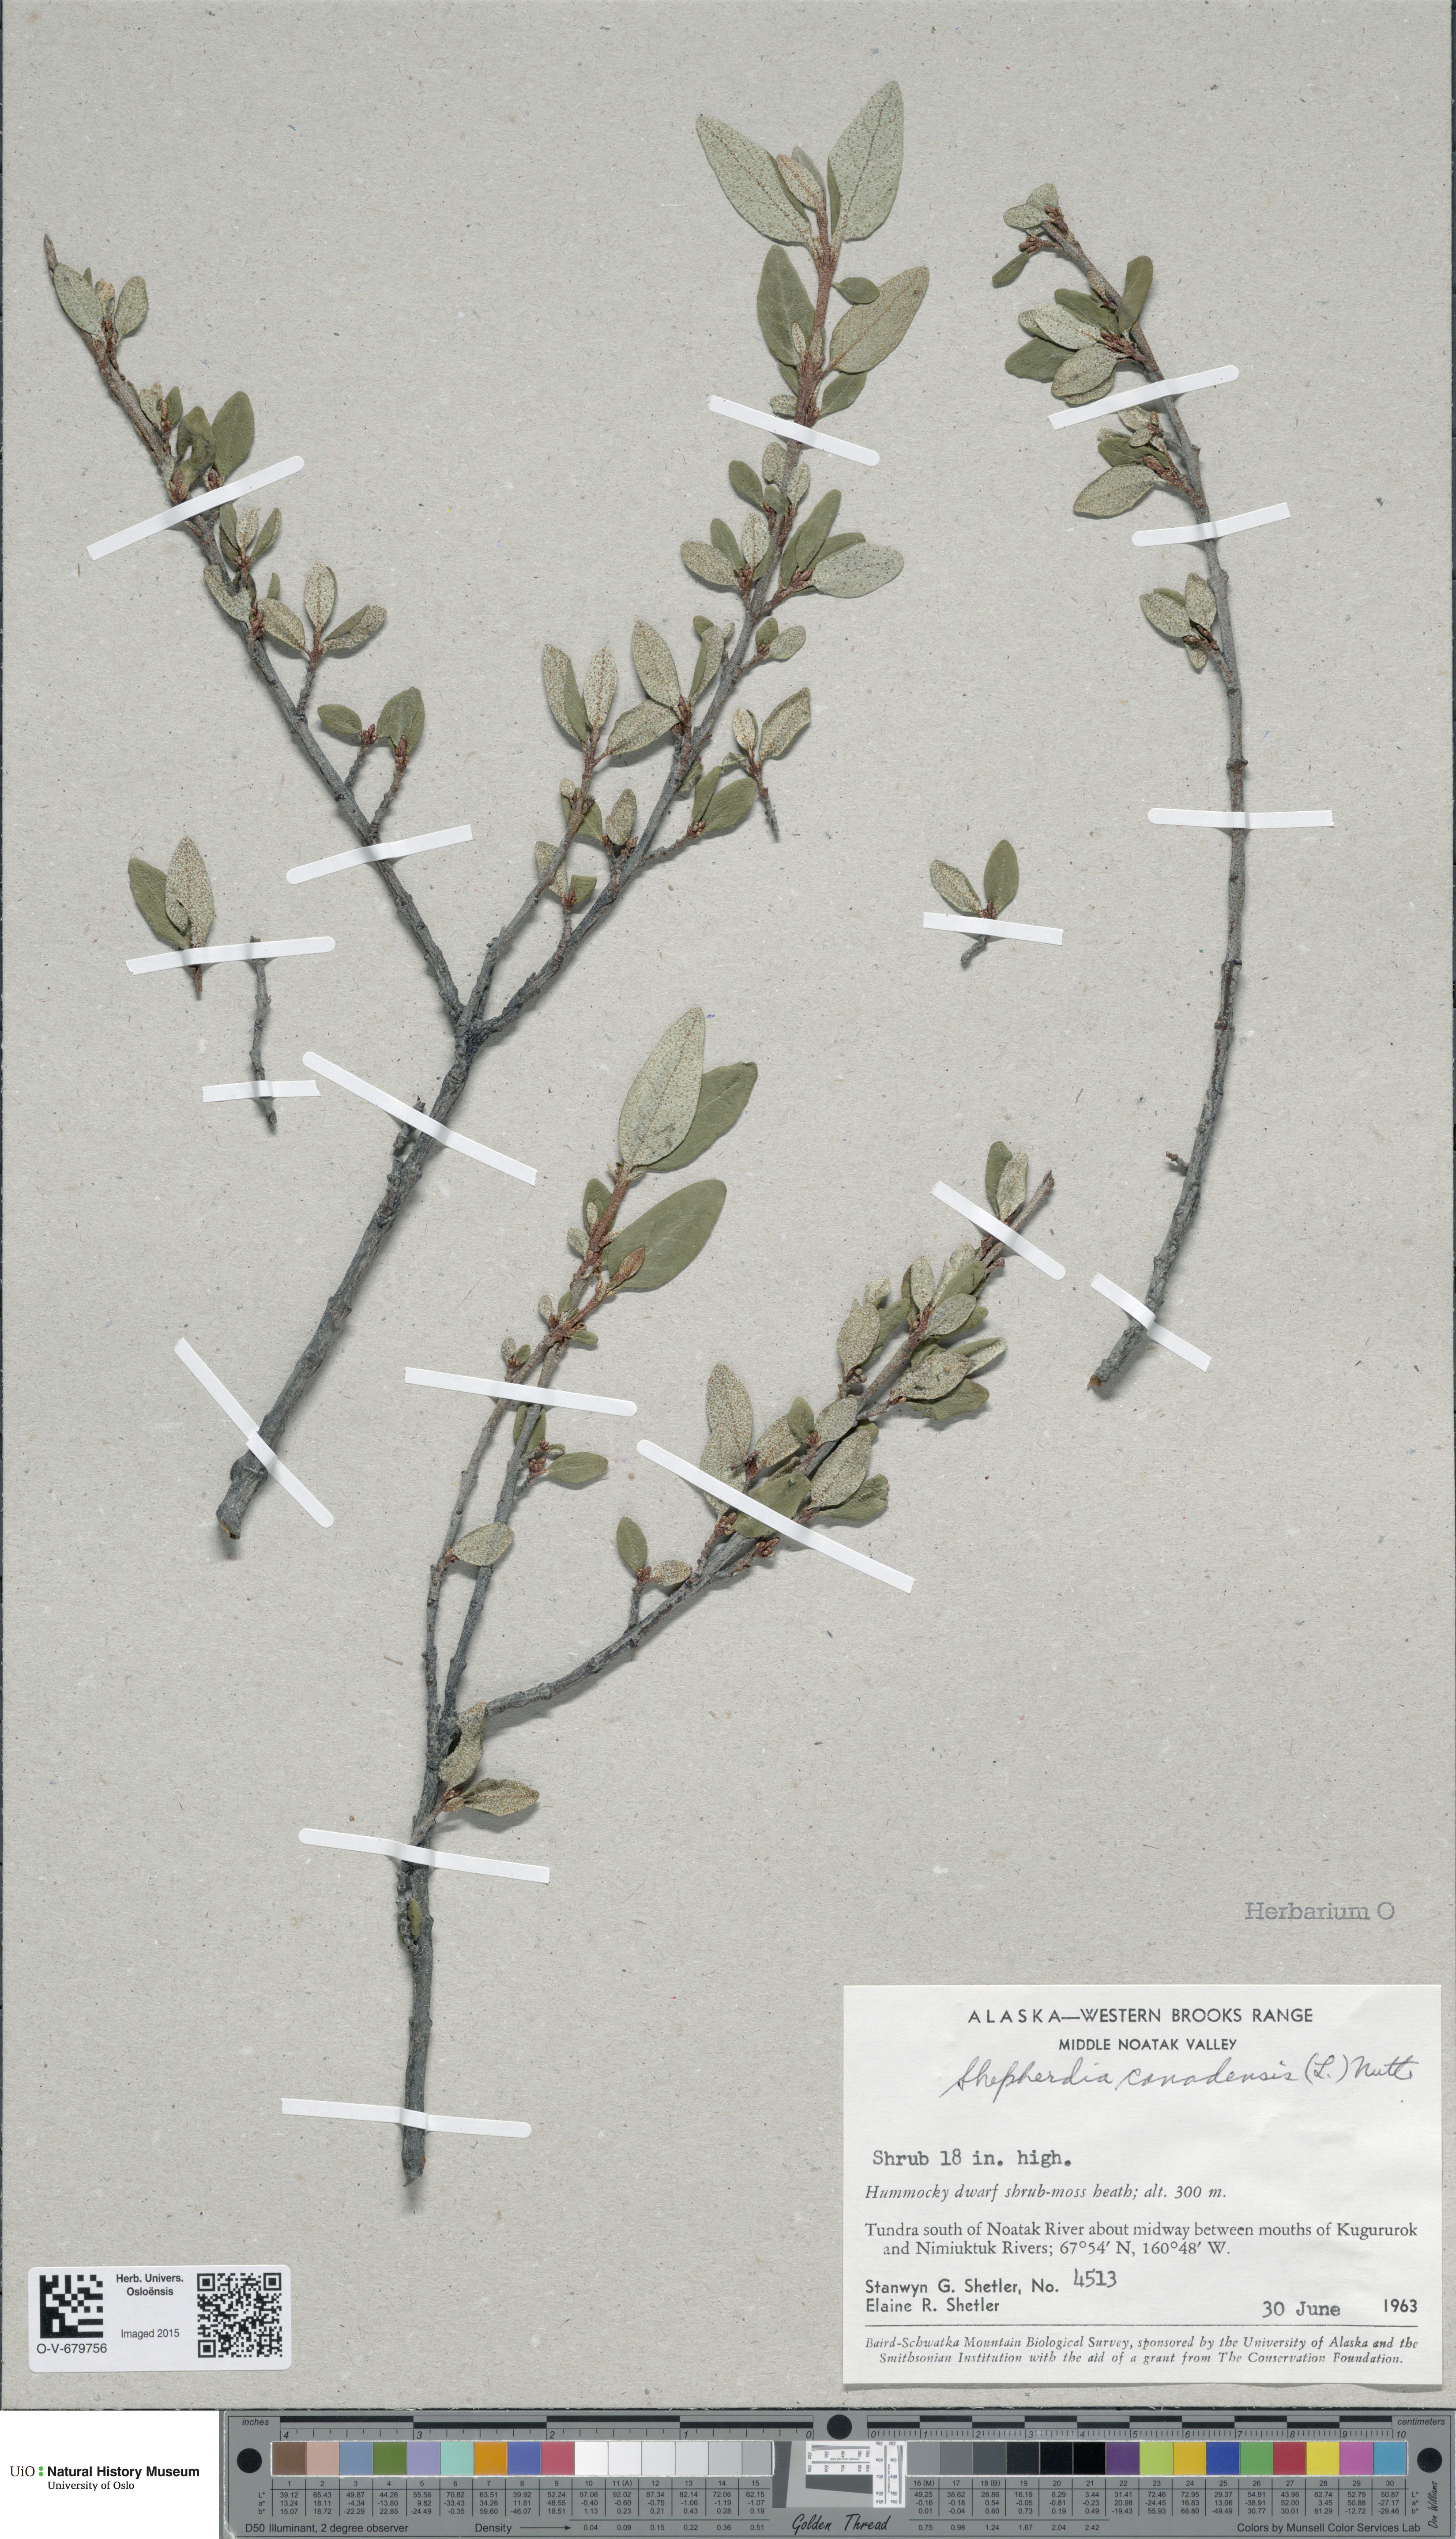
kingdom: Plantae
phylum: Tracheophyta
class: Magnoliopsida
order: Rosales
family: Elaeagnaceae
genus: Shepherdia
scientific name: Shepherdia canadensis
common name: Soapberry
